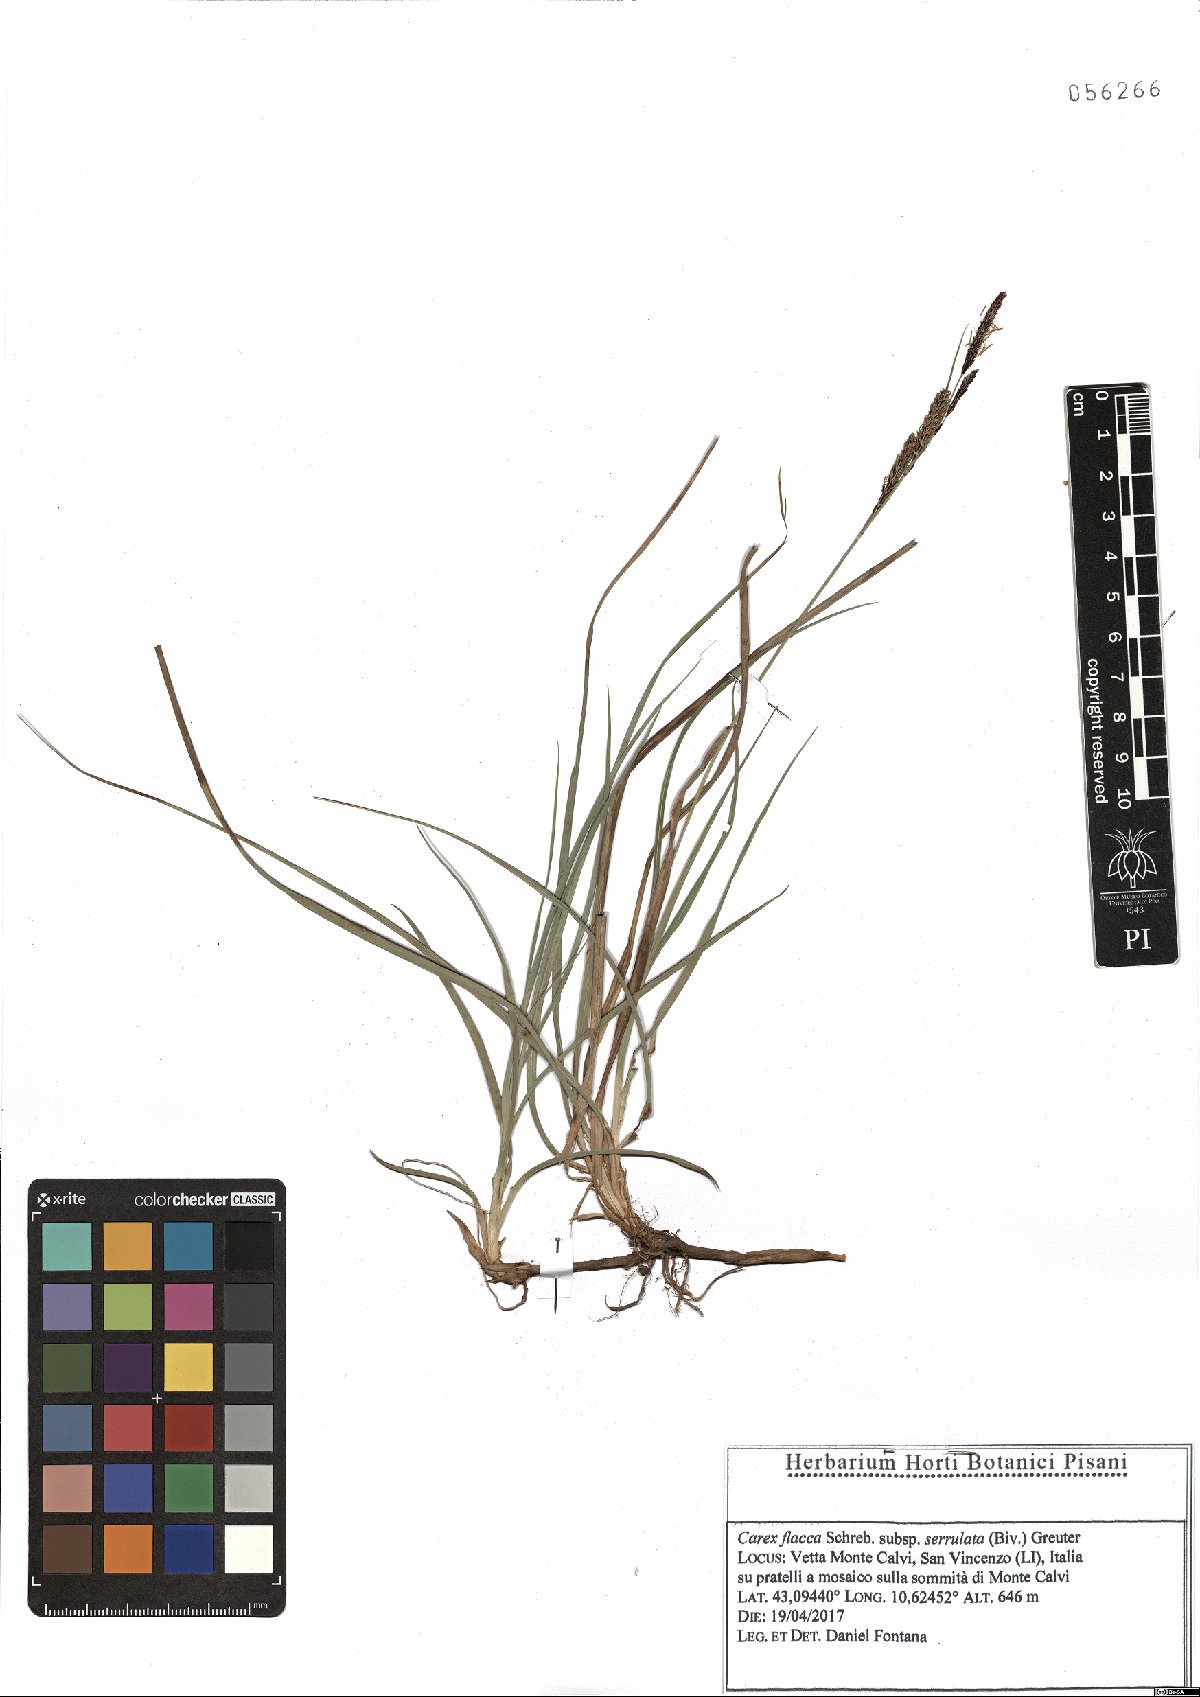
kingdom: Plantae
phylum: Tracheophyta
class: Liliopsida
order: Poales
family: Cyperaceae
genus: Carex
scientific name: Carex flacca
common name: Glaucous sedge
